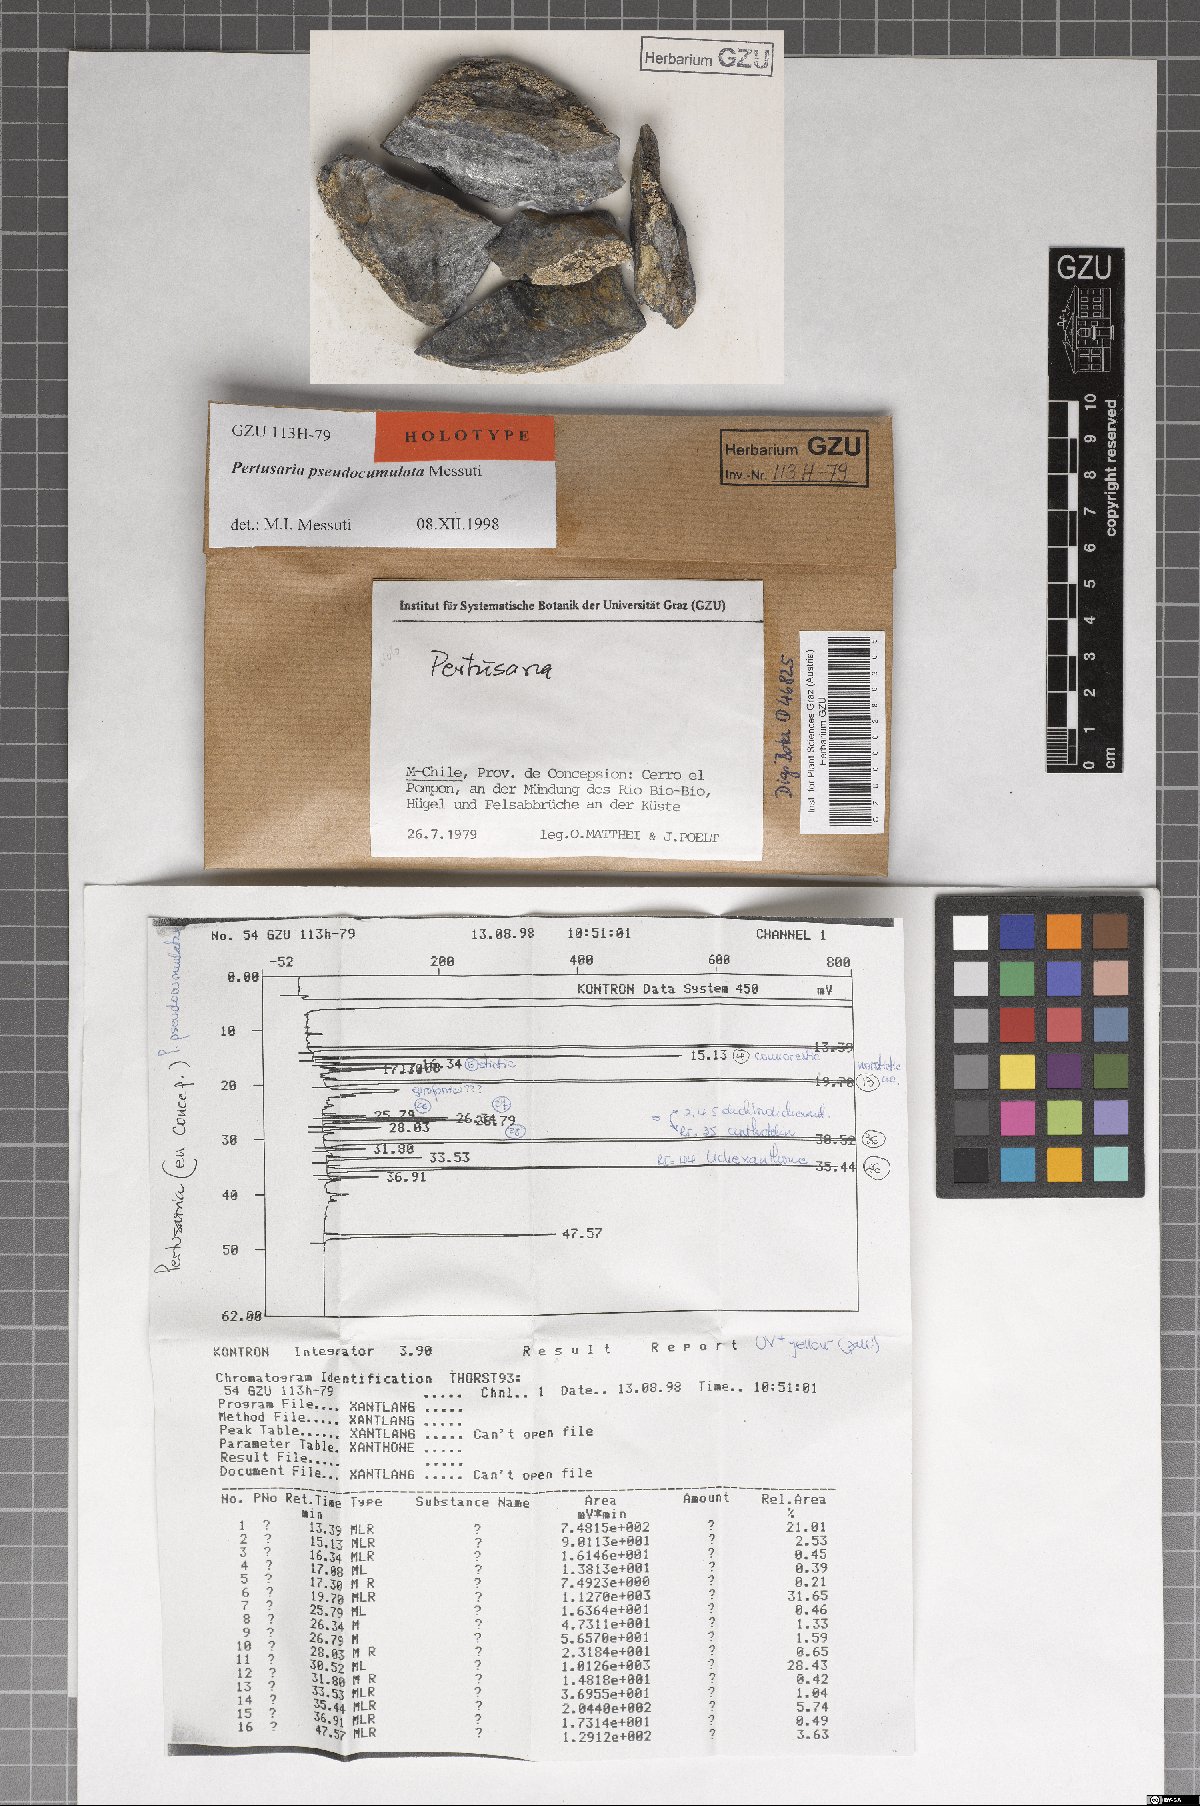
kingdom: Fungi
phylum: Ascomycota
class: Lecanoromycetes
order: Pertusariales
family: Pertusariaceae
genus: Pertusaria
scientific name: Pertusaria pseudoculata
